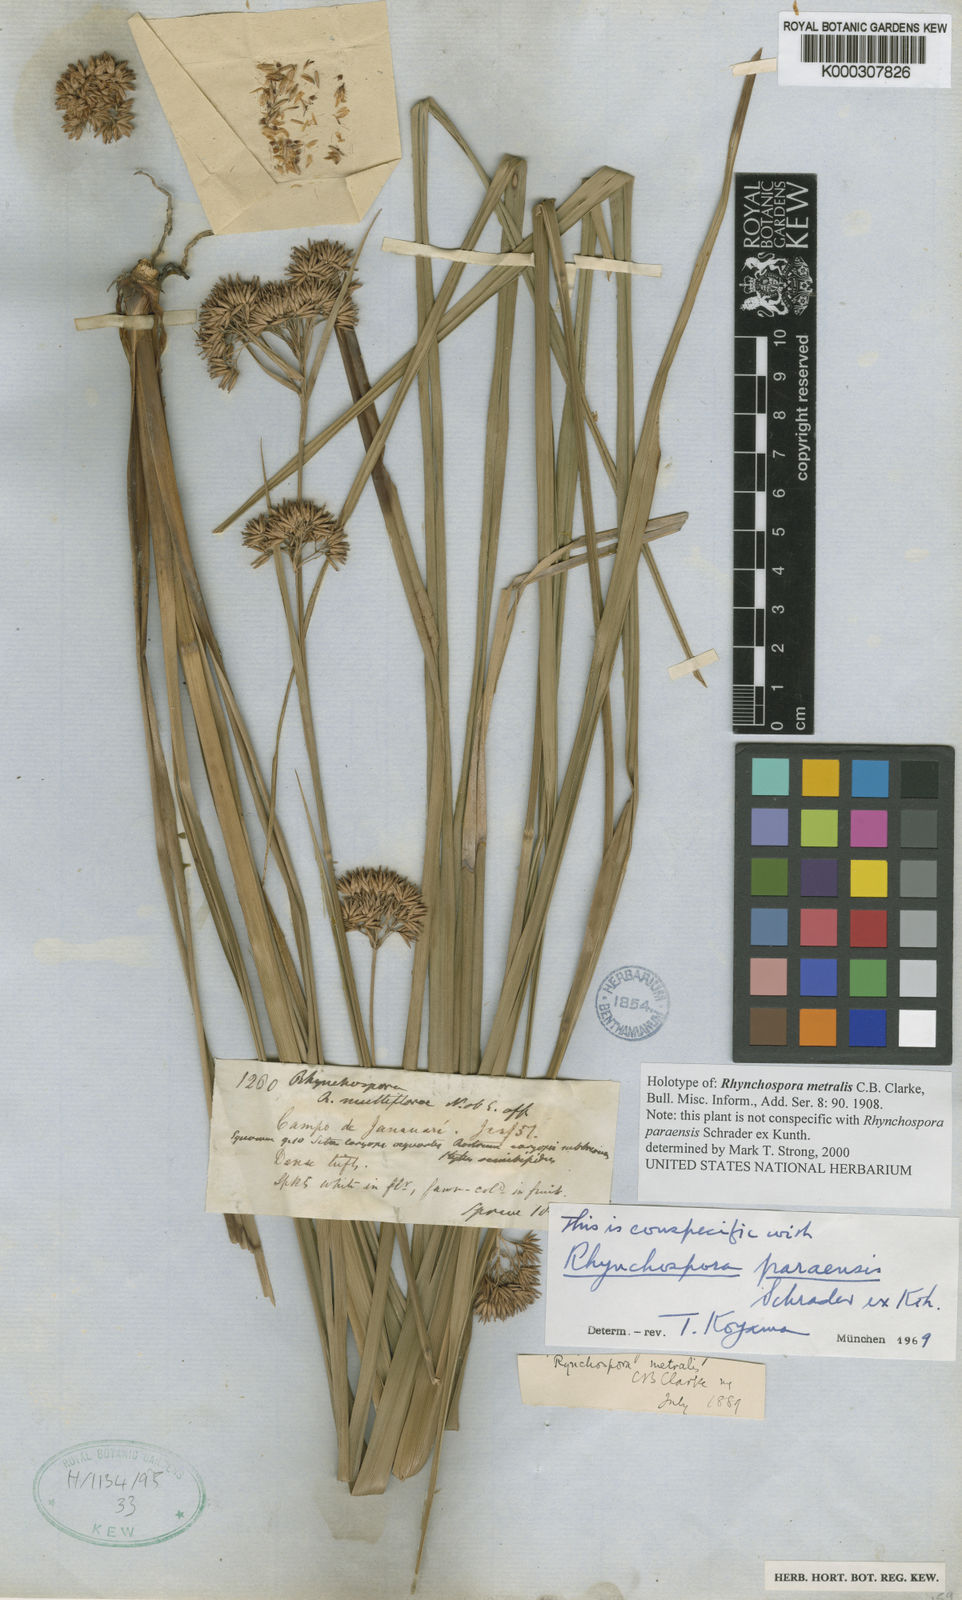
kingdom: Plantae
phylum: Tracheophyta
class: Liliopsida
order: Poales
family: Cyperaceae
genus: Rhynchospora
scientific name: Rhynchospora metralis
